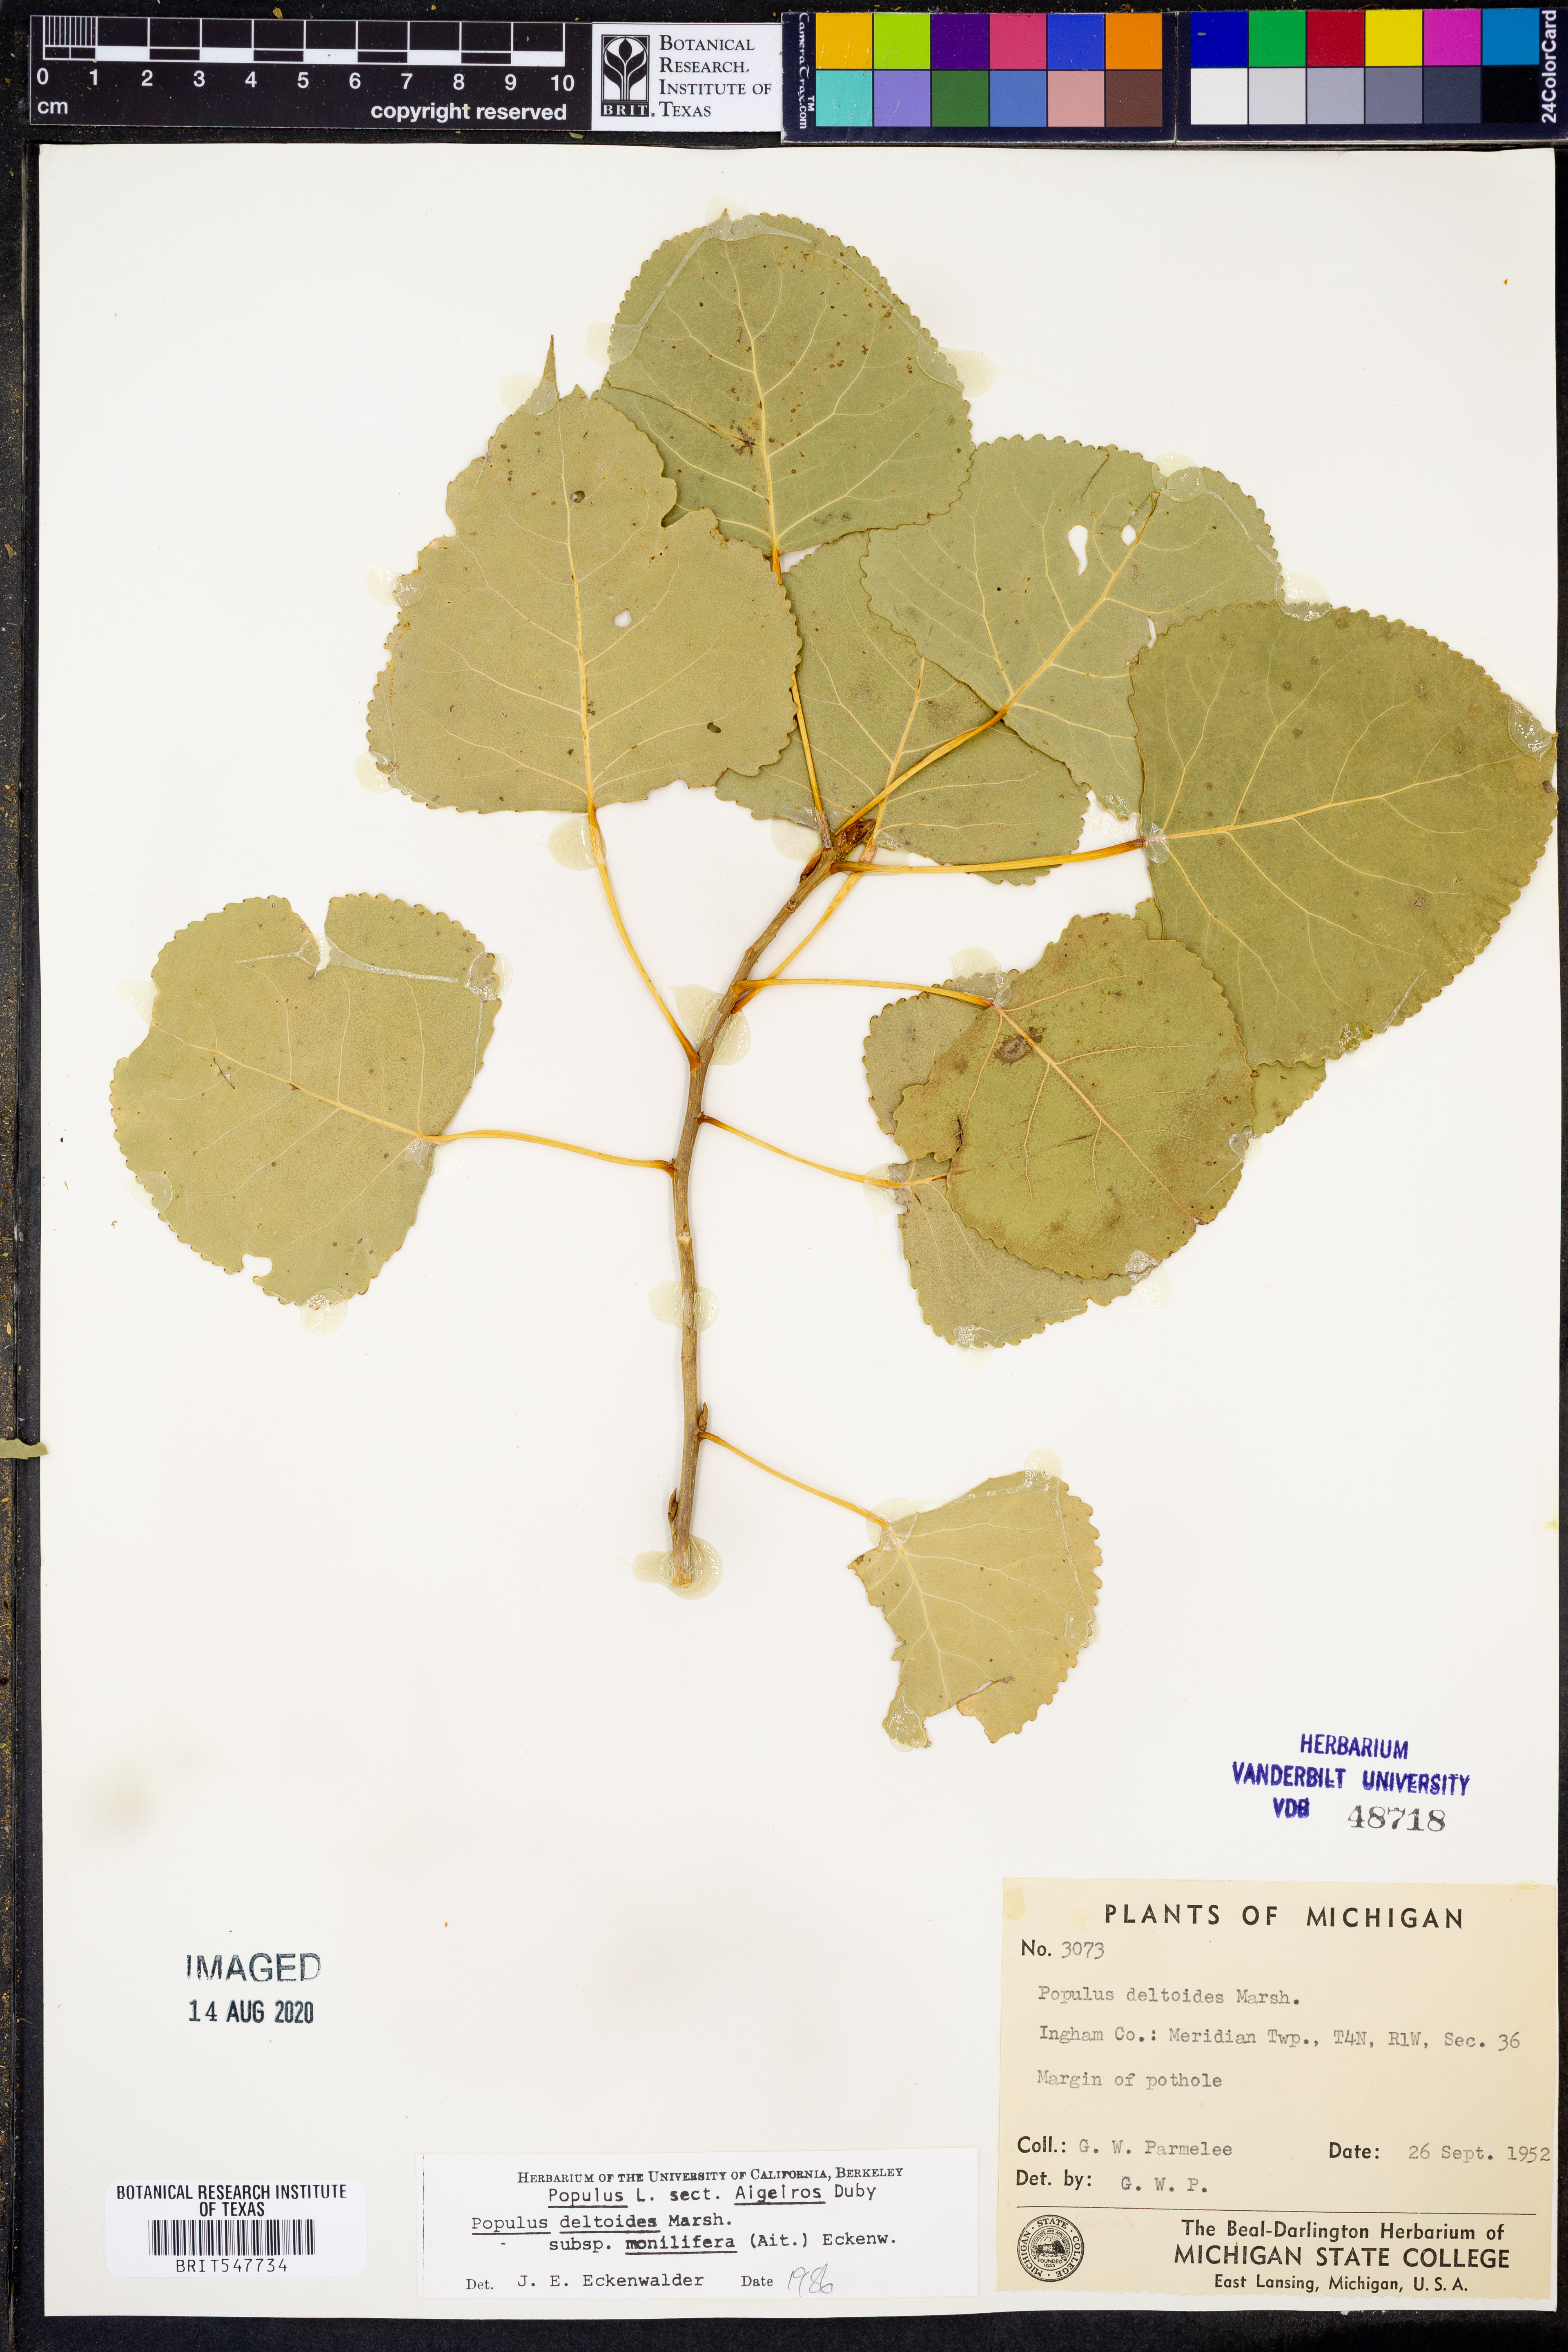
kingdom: Plantae
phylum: Tracheophyta
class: Magnoliopsida
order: Malpighiales
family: Salicaceae
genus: Populus
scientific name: Populus deltoides
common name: Eastern cottonwood
